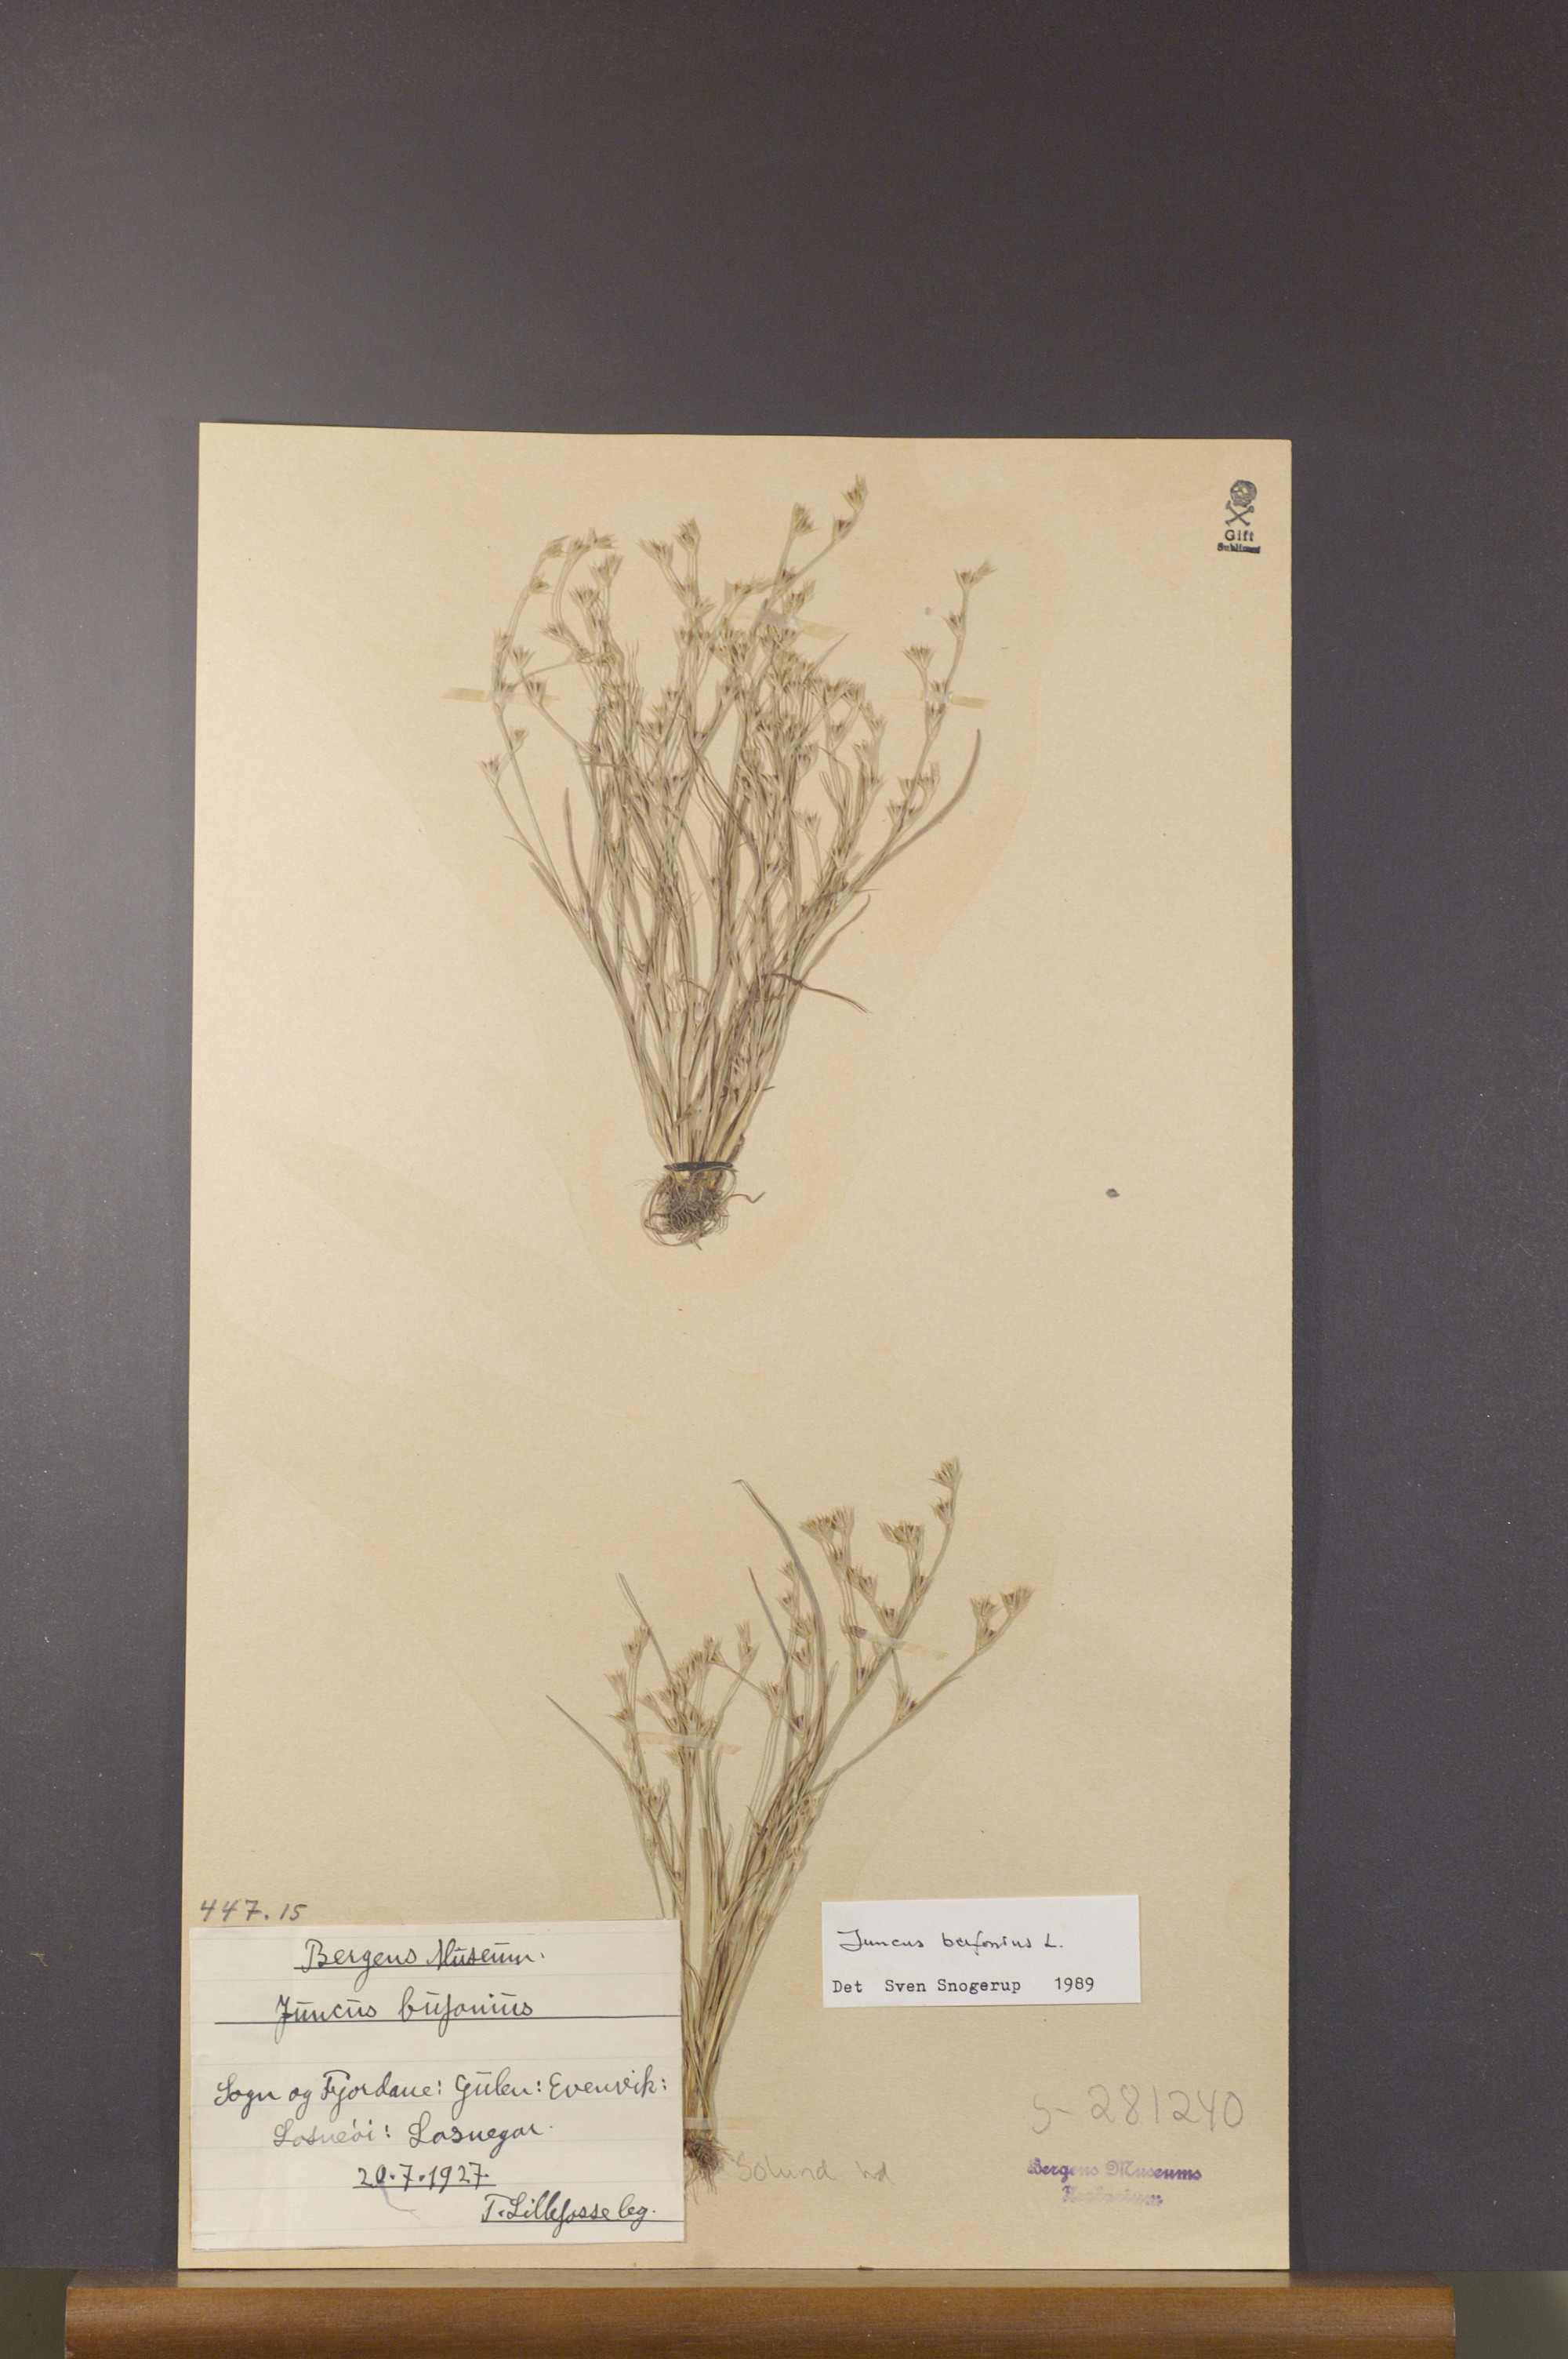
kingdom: Plantae
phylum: Tracheophyta
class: Liliopsida
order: Poales
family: Juncaceae
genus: Juncus
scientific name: Juncus bufonius
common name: Toad rush
